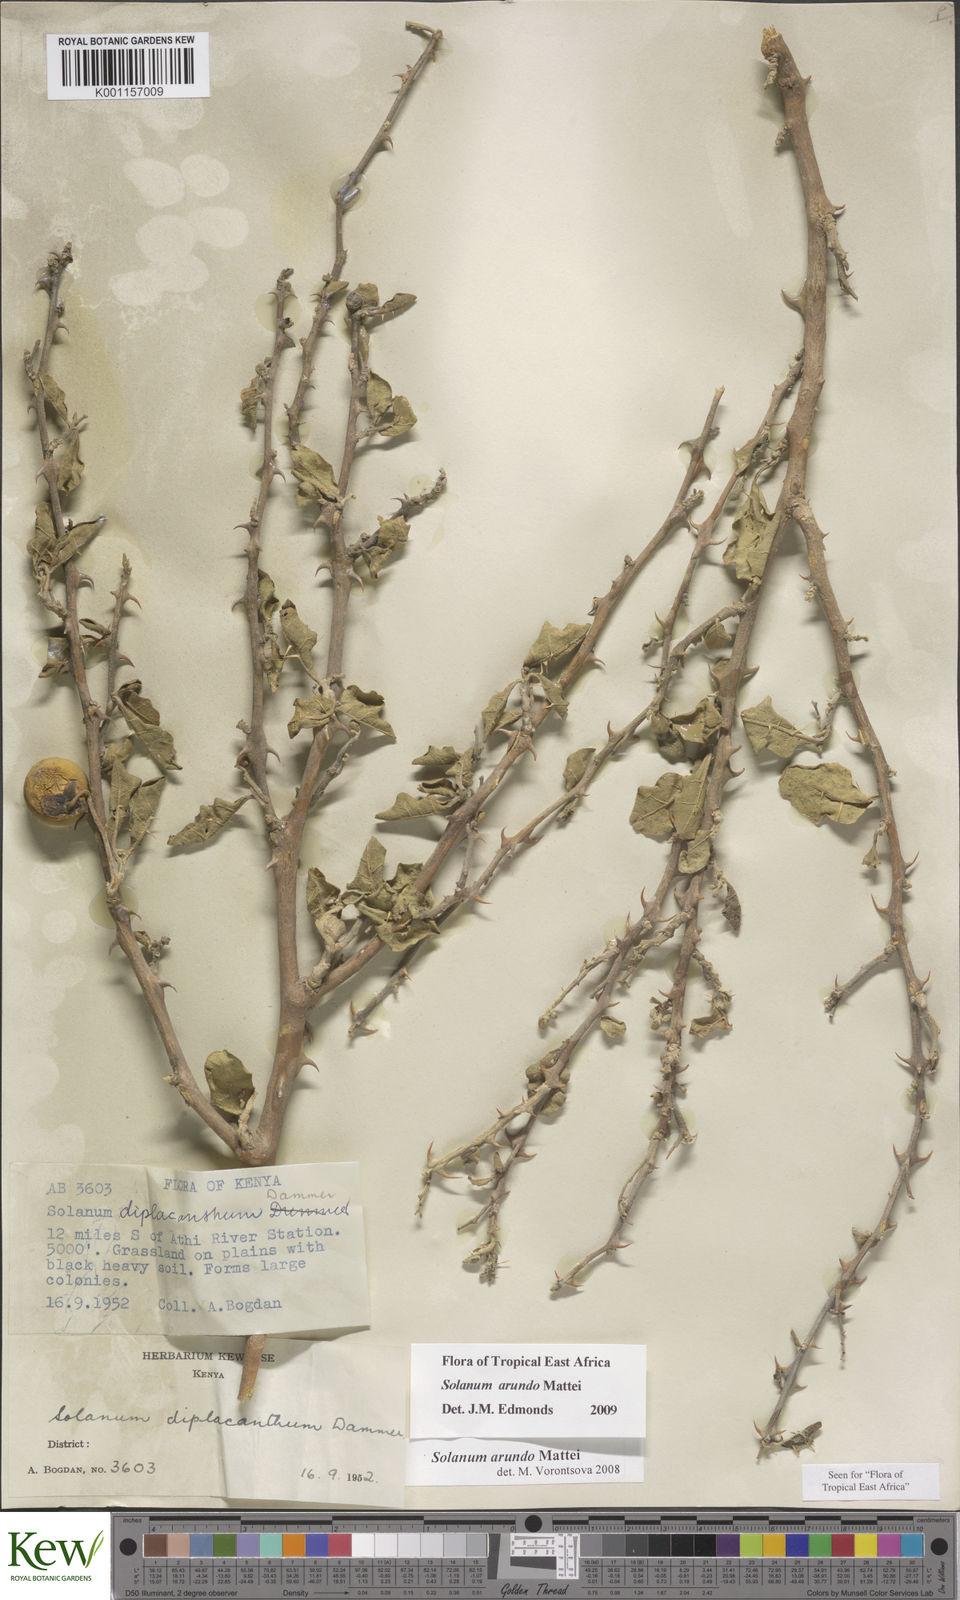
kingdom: Plantae
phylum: Tracheophyta
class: Magnoliopsida
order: Solanales
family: Solanaceae
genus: Solanum
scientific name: Solanum arundo
